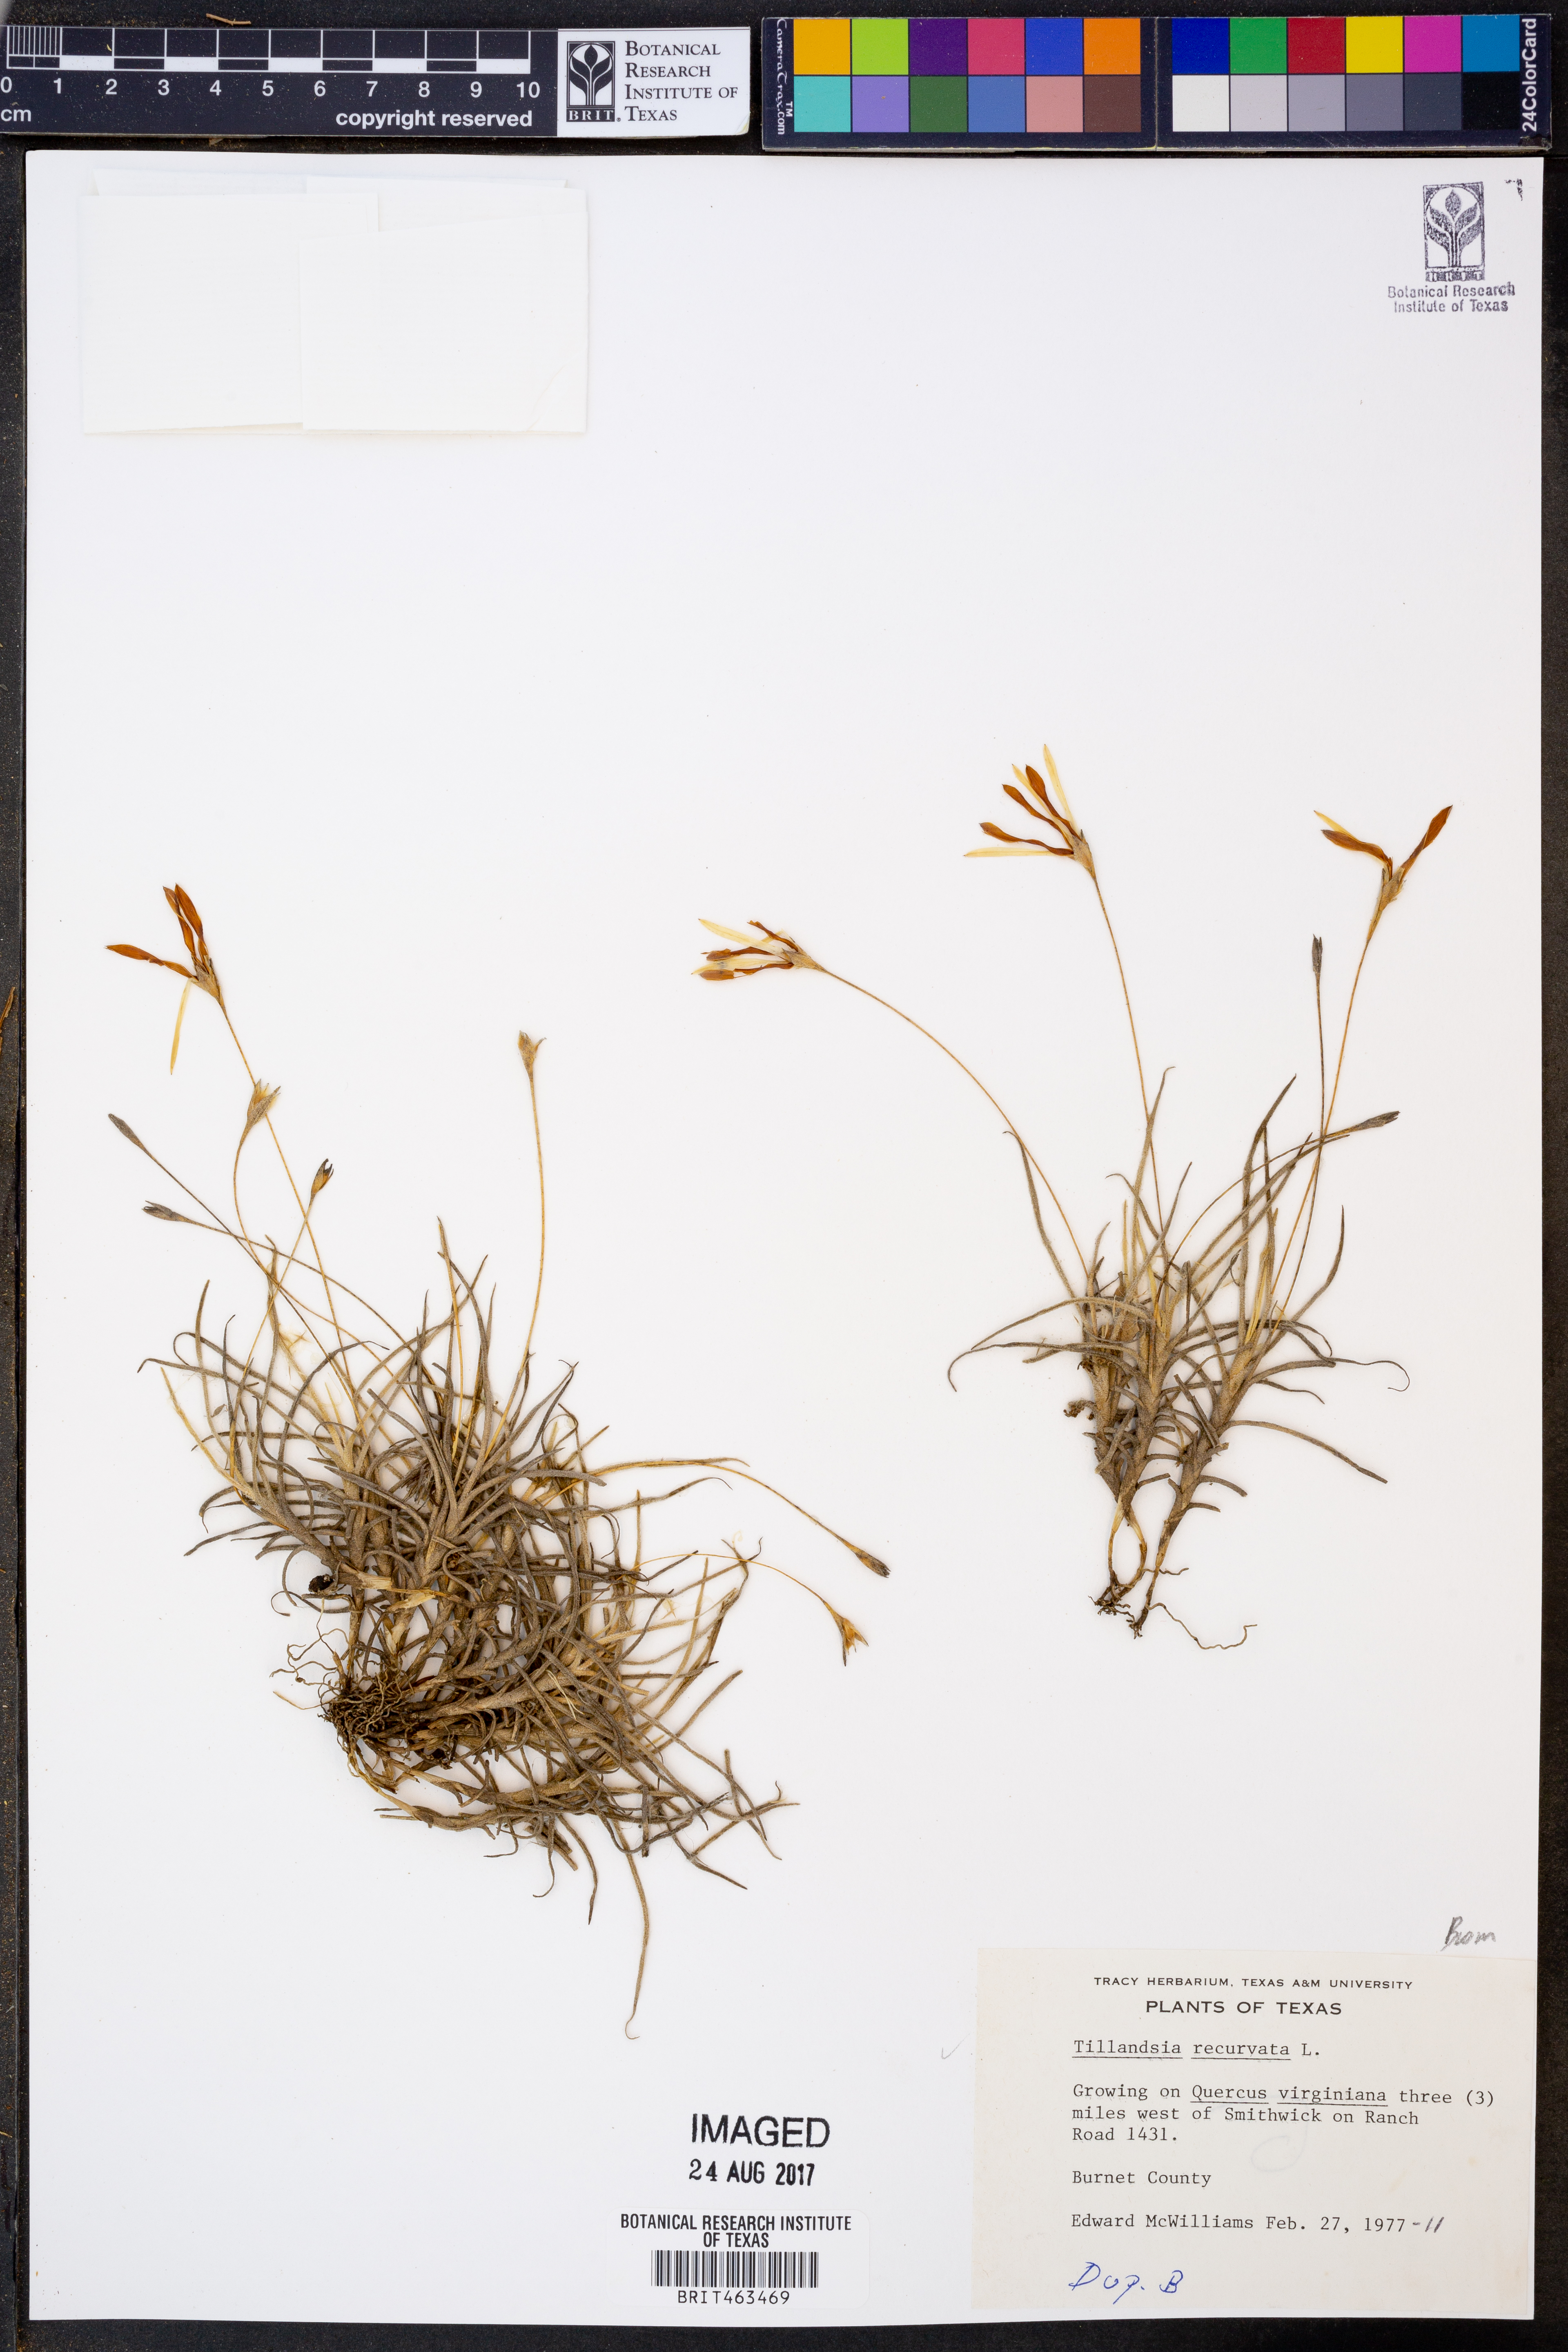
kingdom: Plantae
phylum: Tracheophyta
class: Liliopsida
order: Poales
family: Bromeliaceae
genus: Tillandsia
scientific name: Tillandsia recurvata
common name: Small ballmoss
